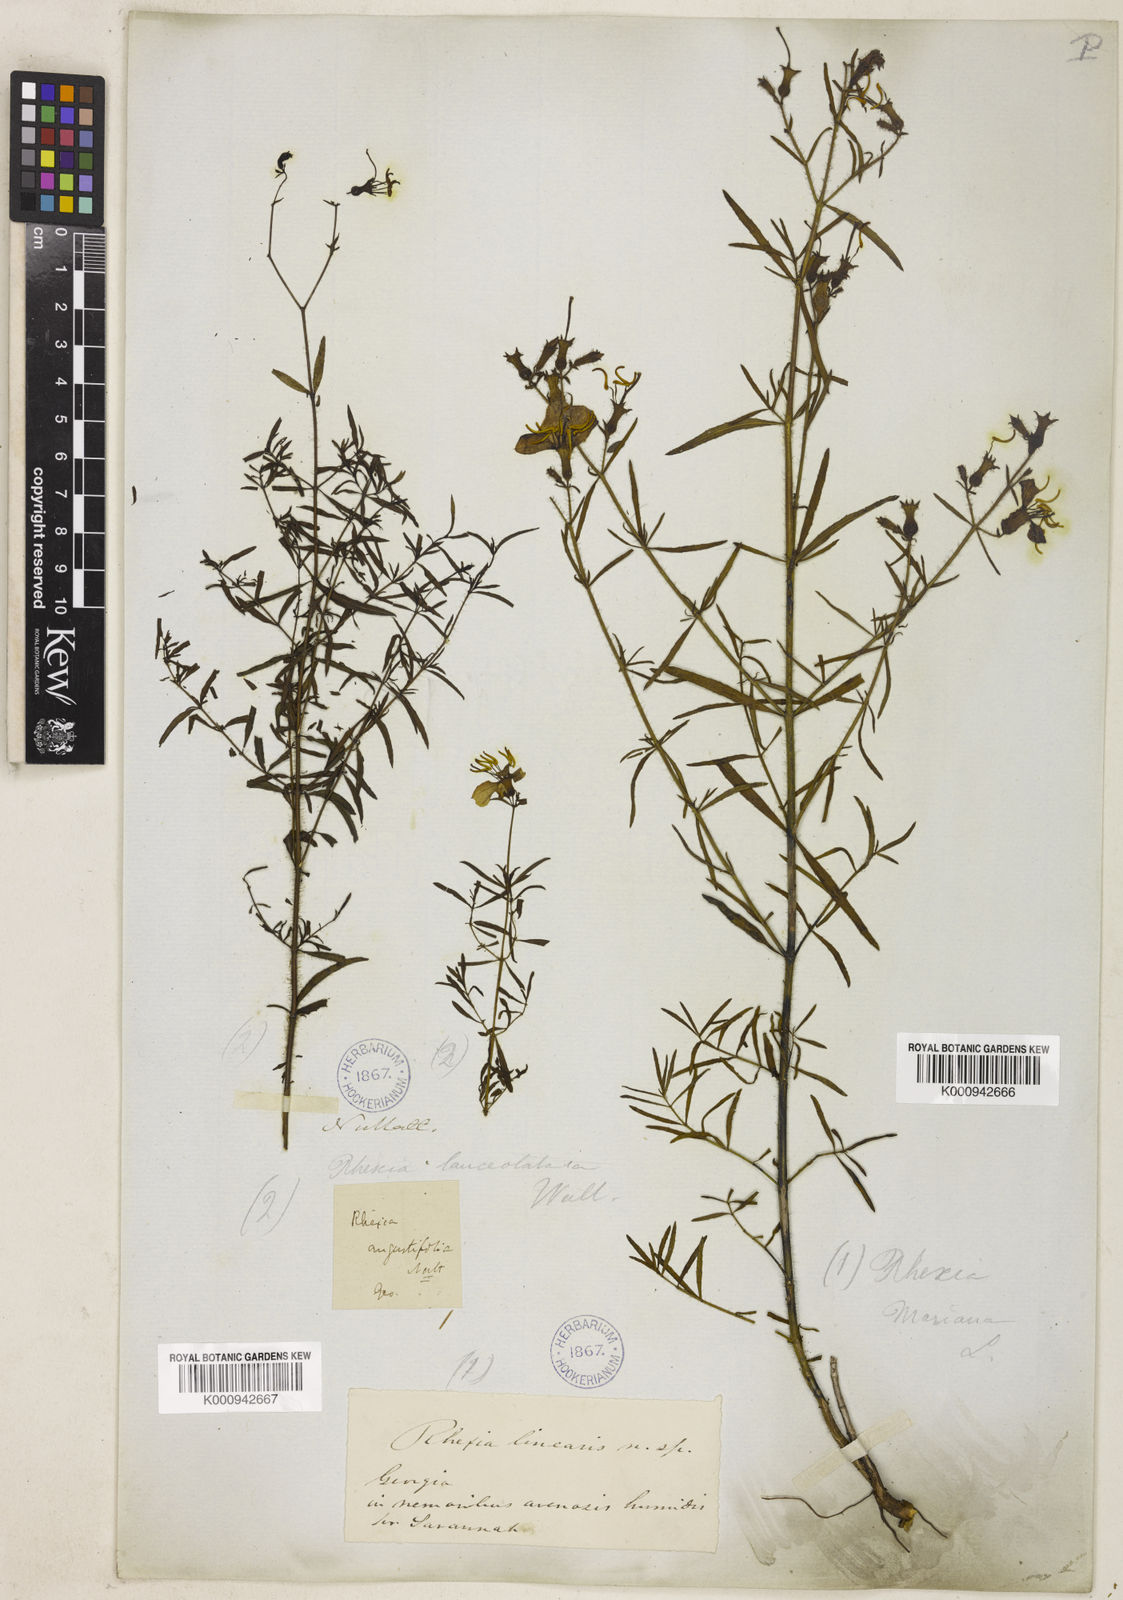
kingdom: Plantae
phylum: Tracheophyta
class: Magnoliopsida
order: Myrtales
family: Melastomataceae
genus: Rhexia
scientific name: Rhexia mariana
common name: Dull meadow-pitcher
